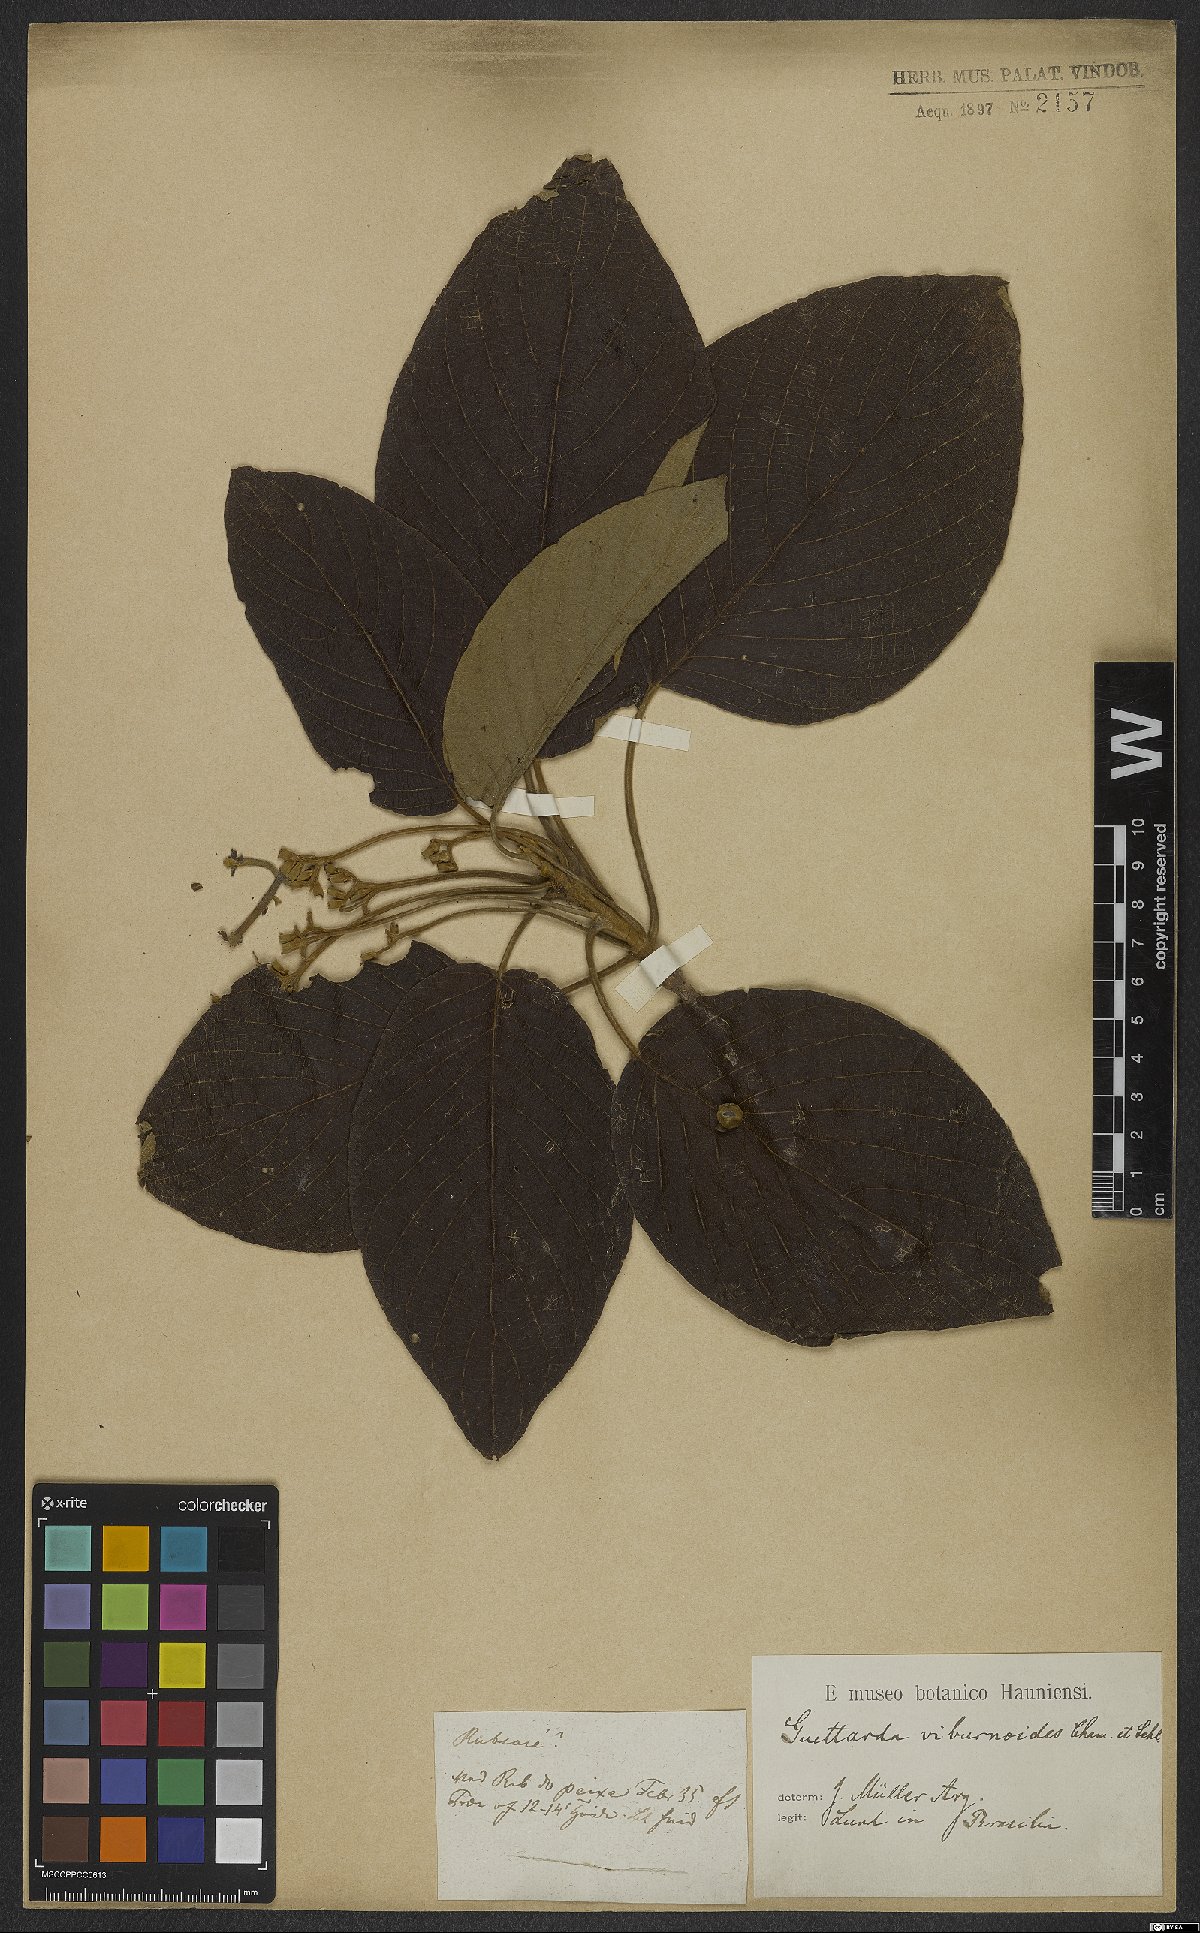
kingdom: Plantae
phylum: Tracheophyta
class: Magnoliopsida
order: Gentianales
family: Rubiaceae
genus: Guettarda
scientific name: Guettarda viburnoides
